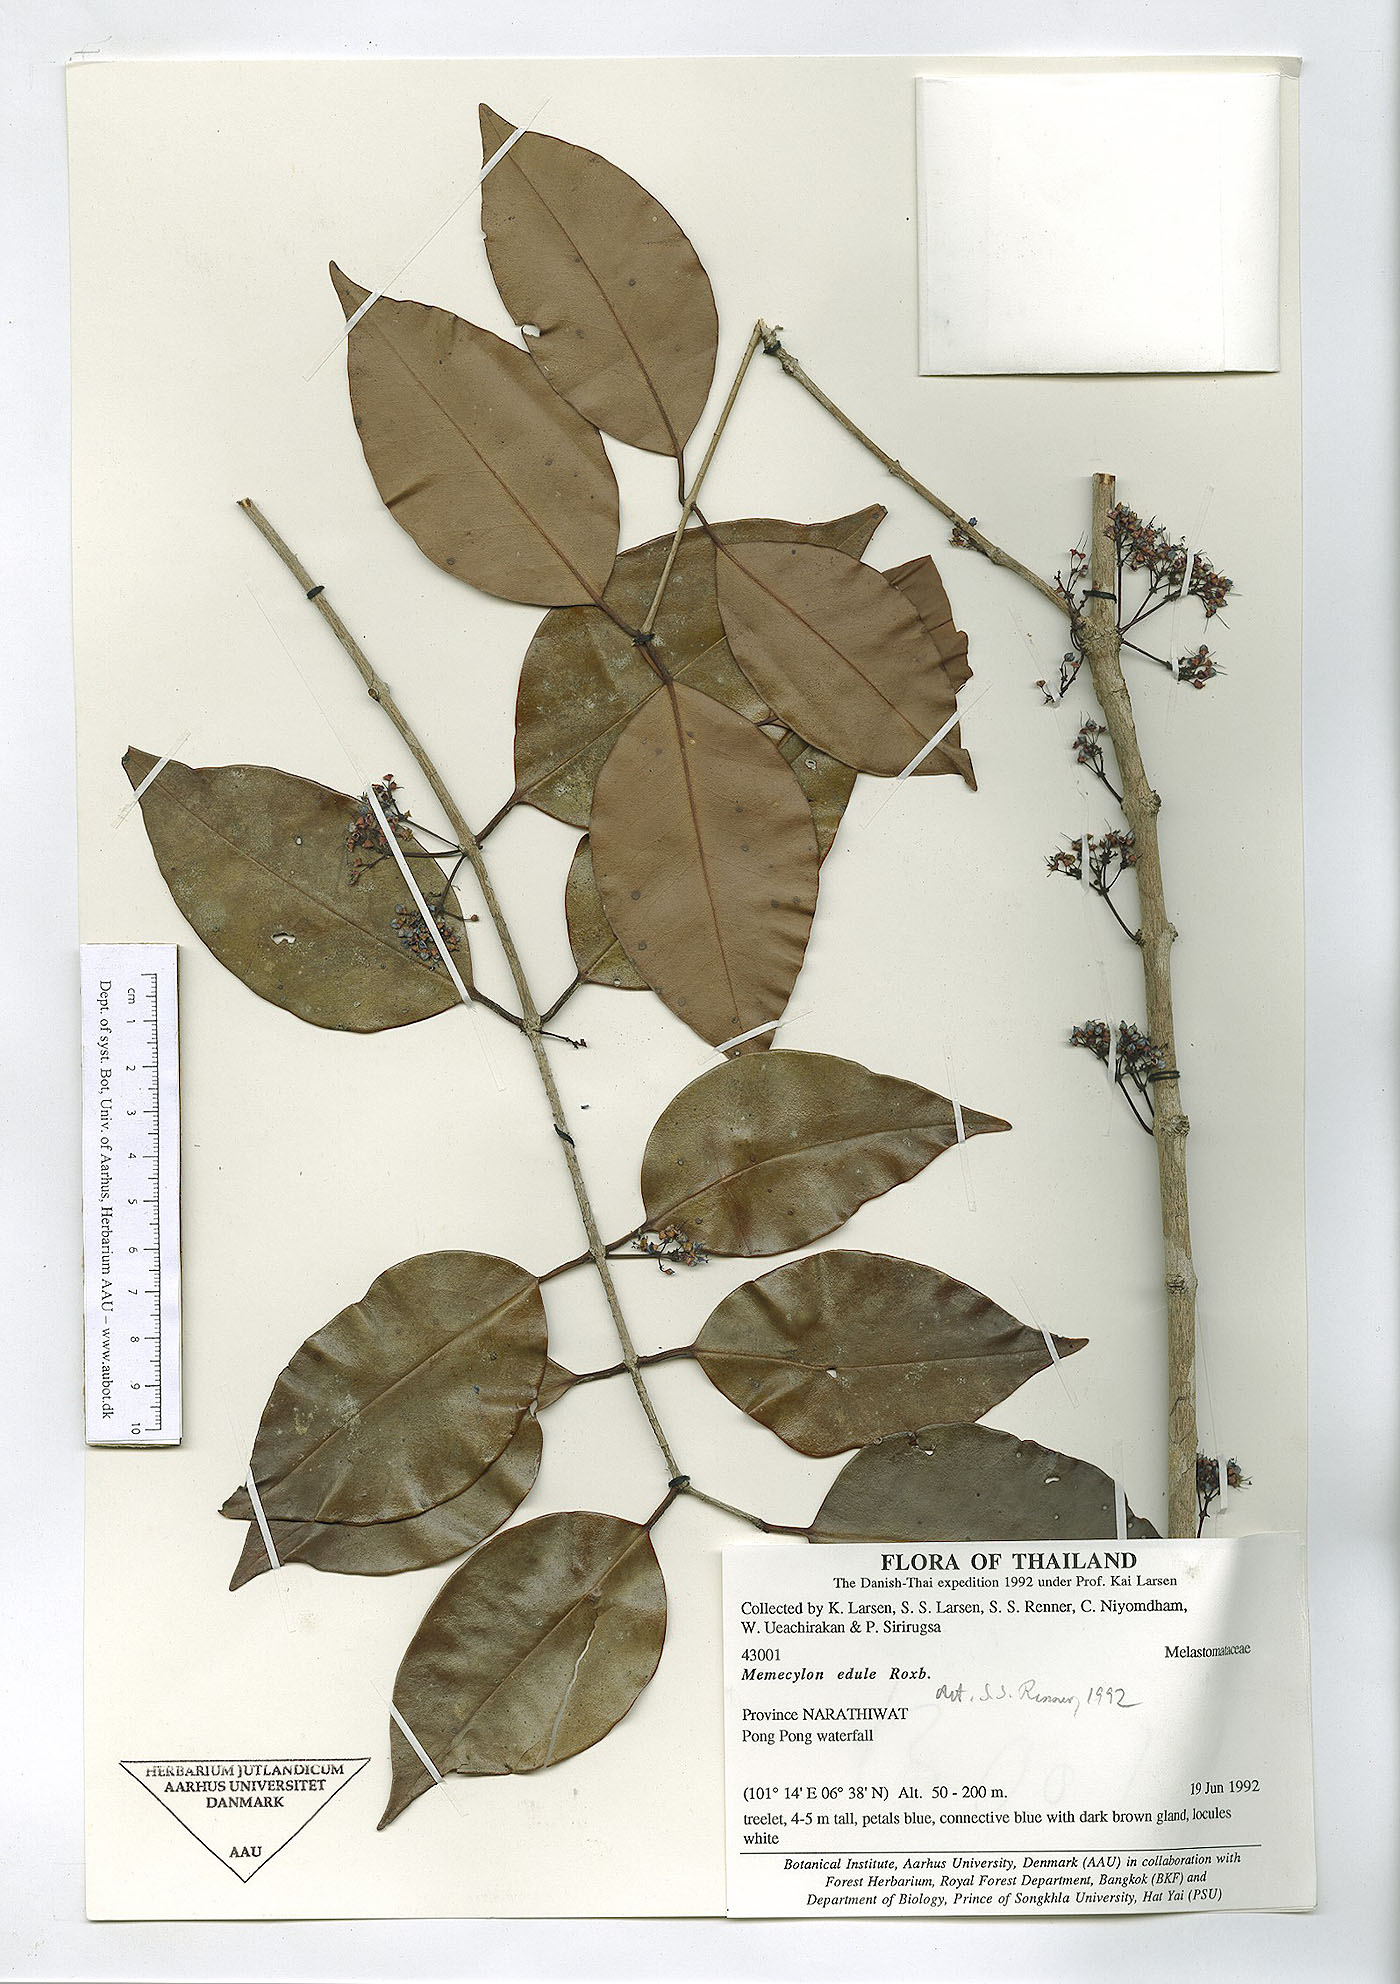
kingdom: Plantae
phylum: Tracheophyta
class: Magnoliopsida
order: Myrtales
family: Melastomataceae
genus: Memecylon
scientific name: Memecylon ovatum
